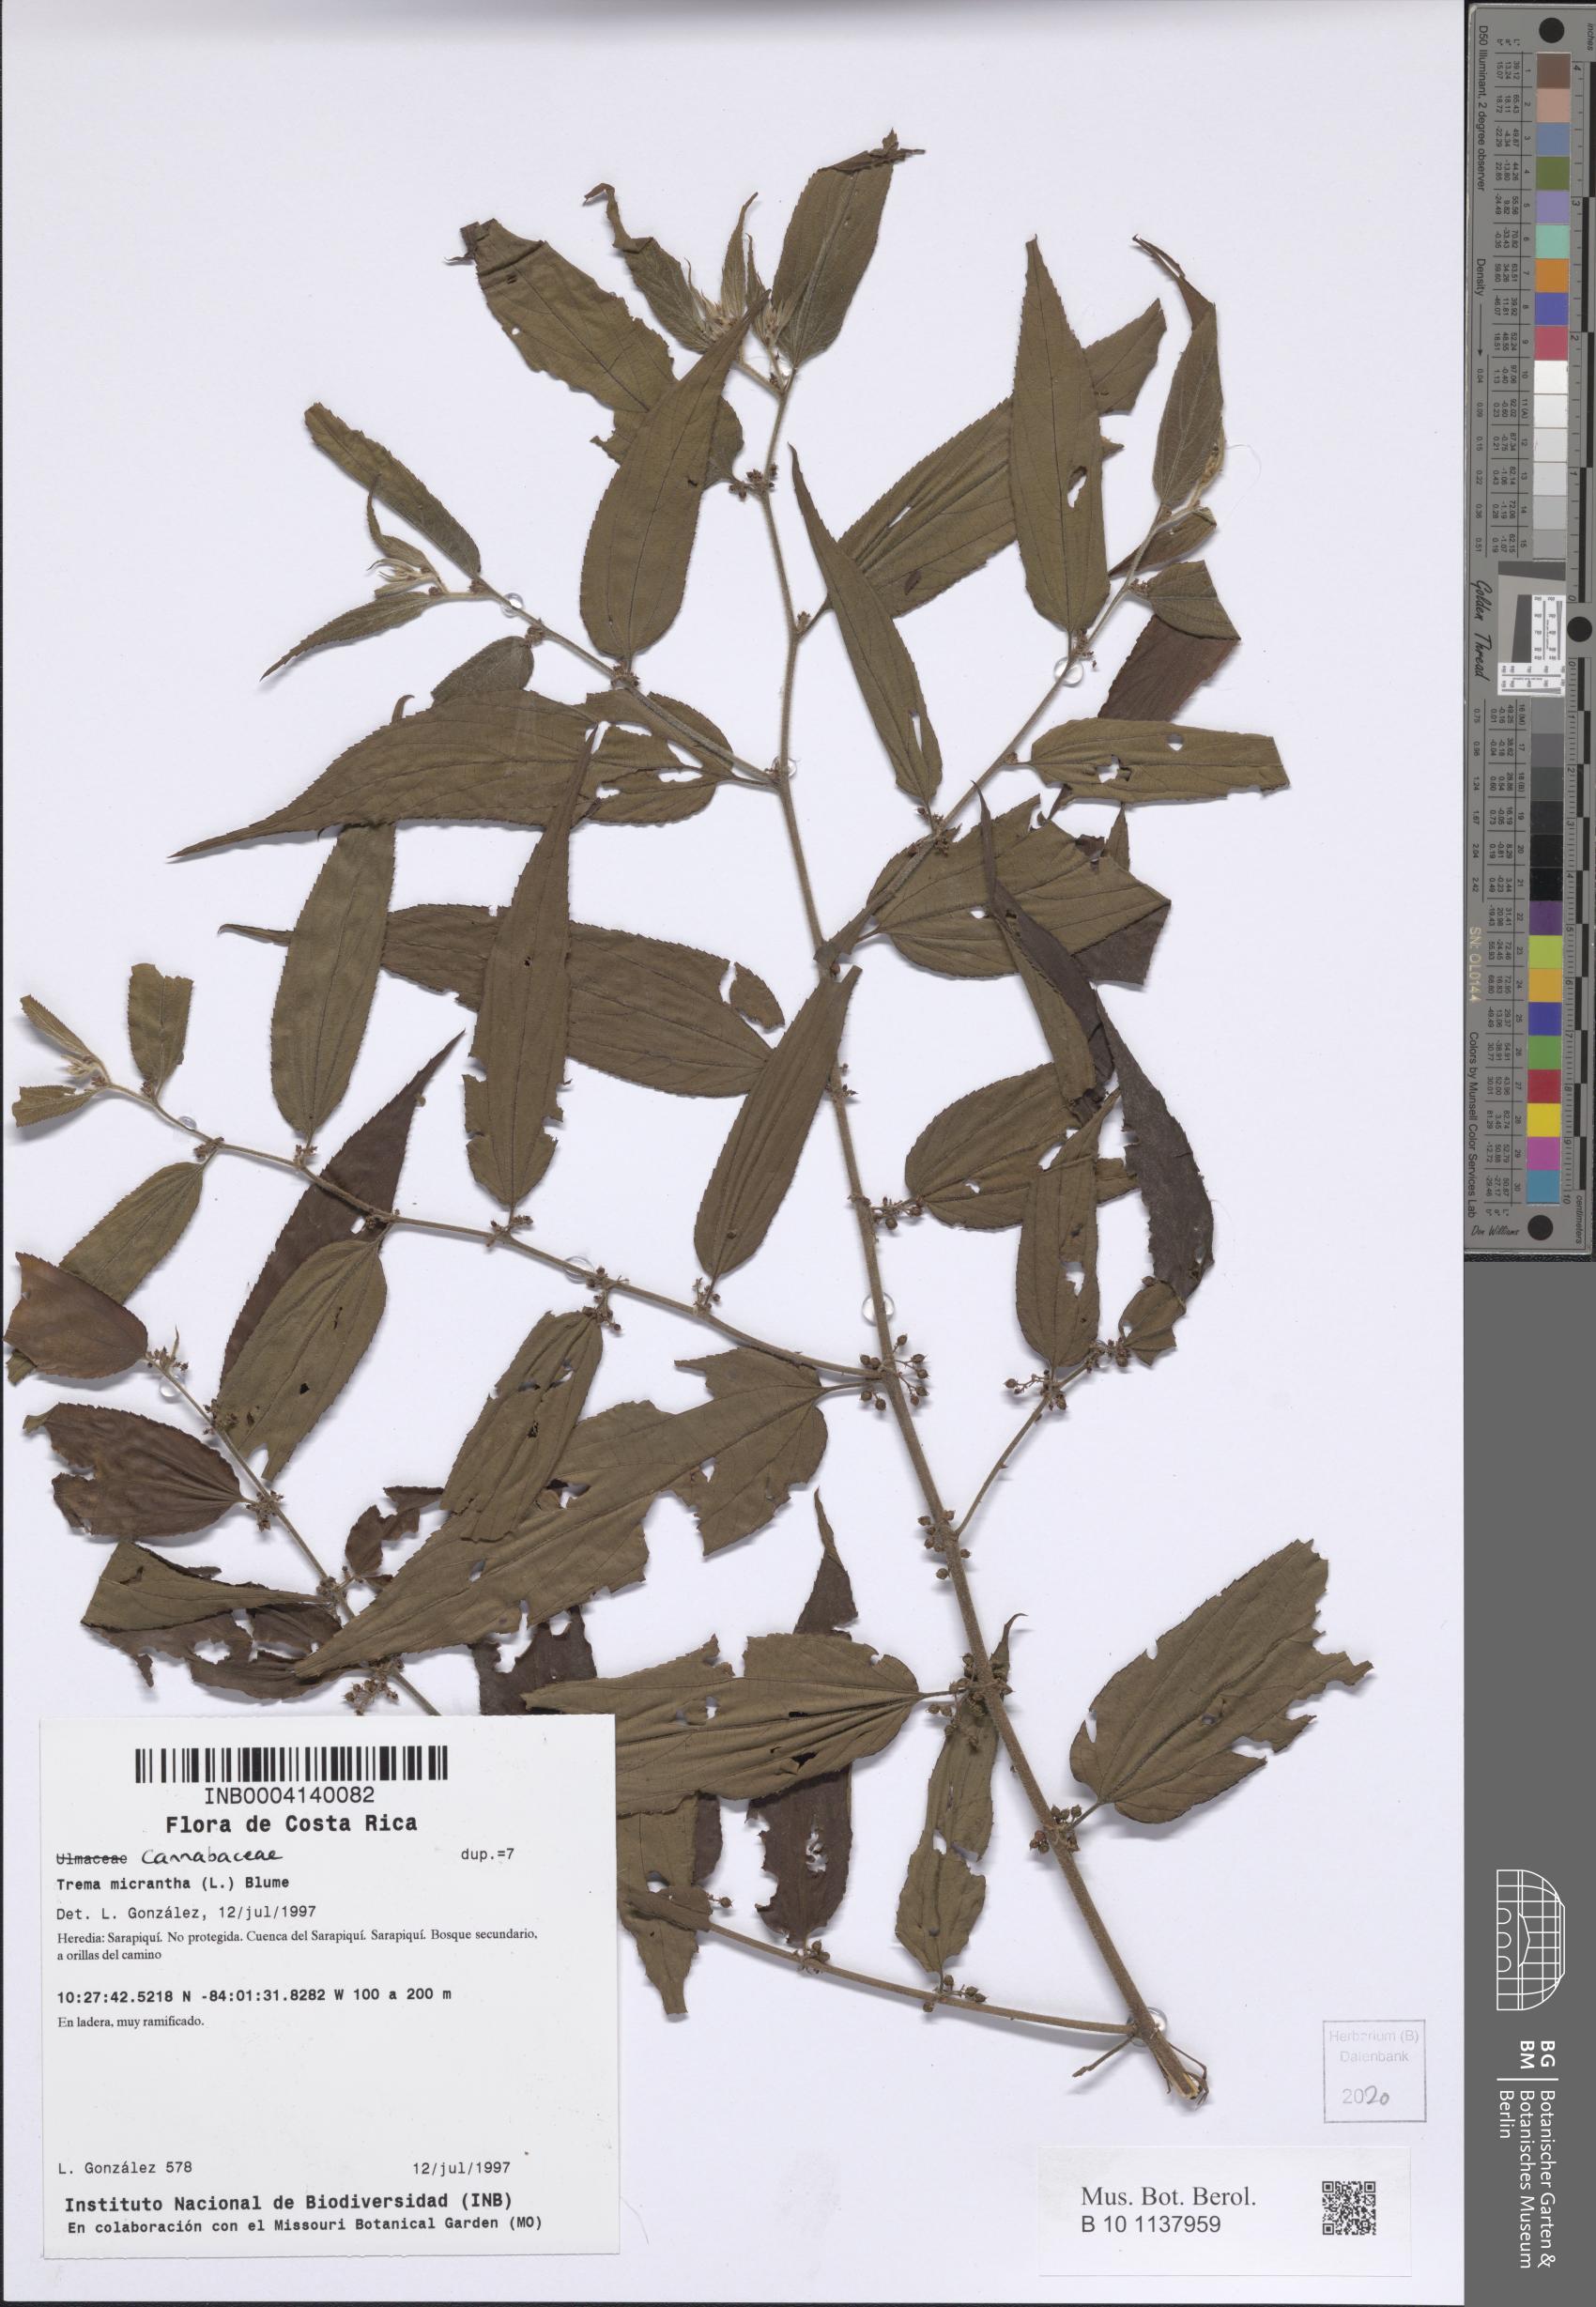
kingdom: Plantae
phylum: Tracheophyta
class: Magnoliopsida
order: Rosales
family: Cannabaceae
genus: Trema
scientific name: Trema micranthum
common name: Jamaican nettletree
